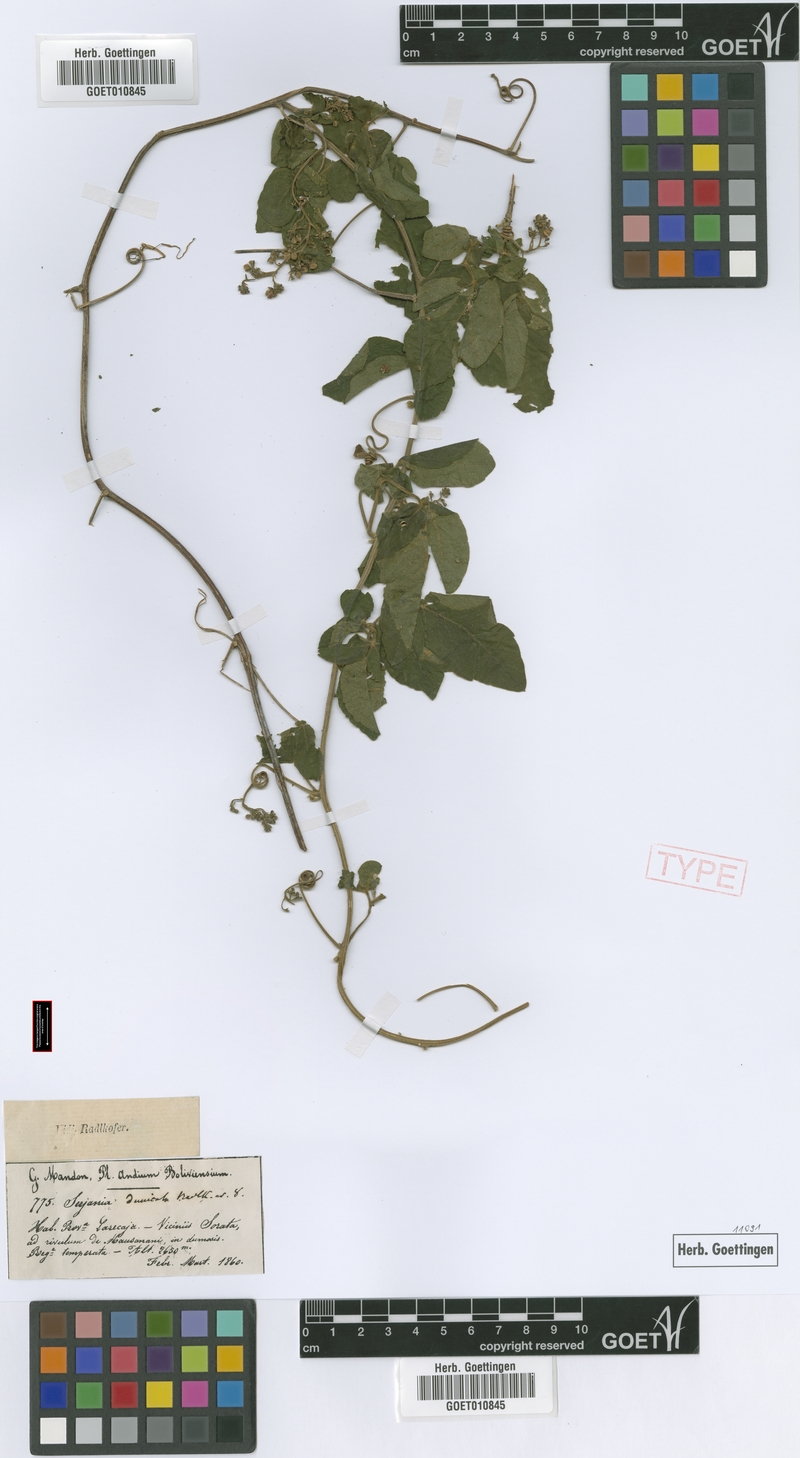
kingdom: Plantae
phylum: Tracheophyta
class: Magnoliopsida
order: Sapindales
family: Sapindaceae
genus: Serjania
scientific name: Serjania dumicola
